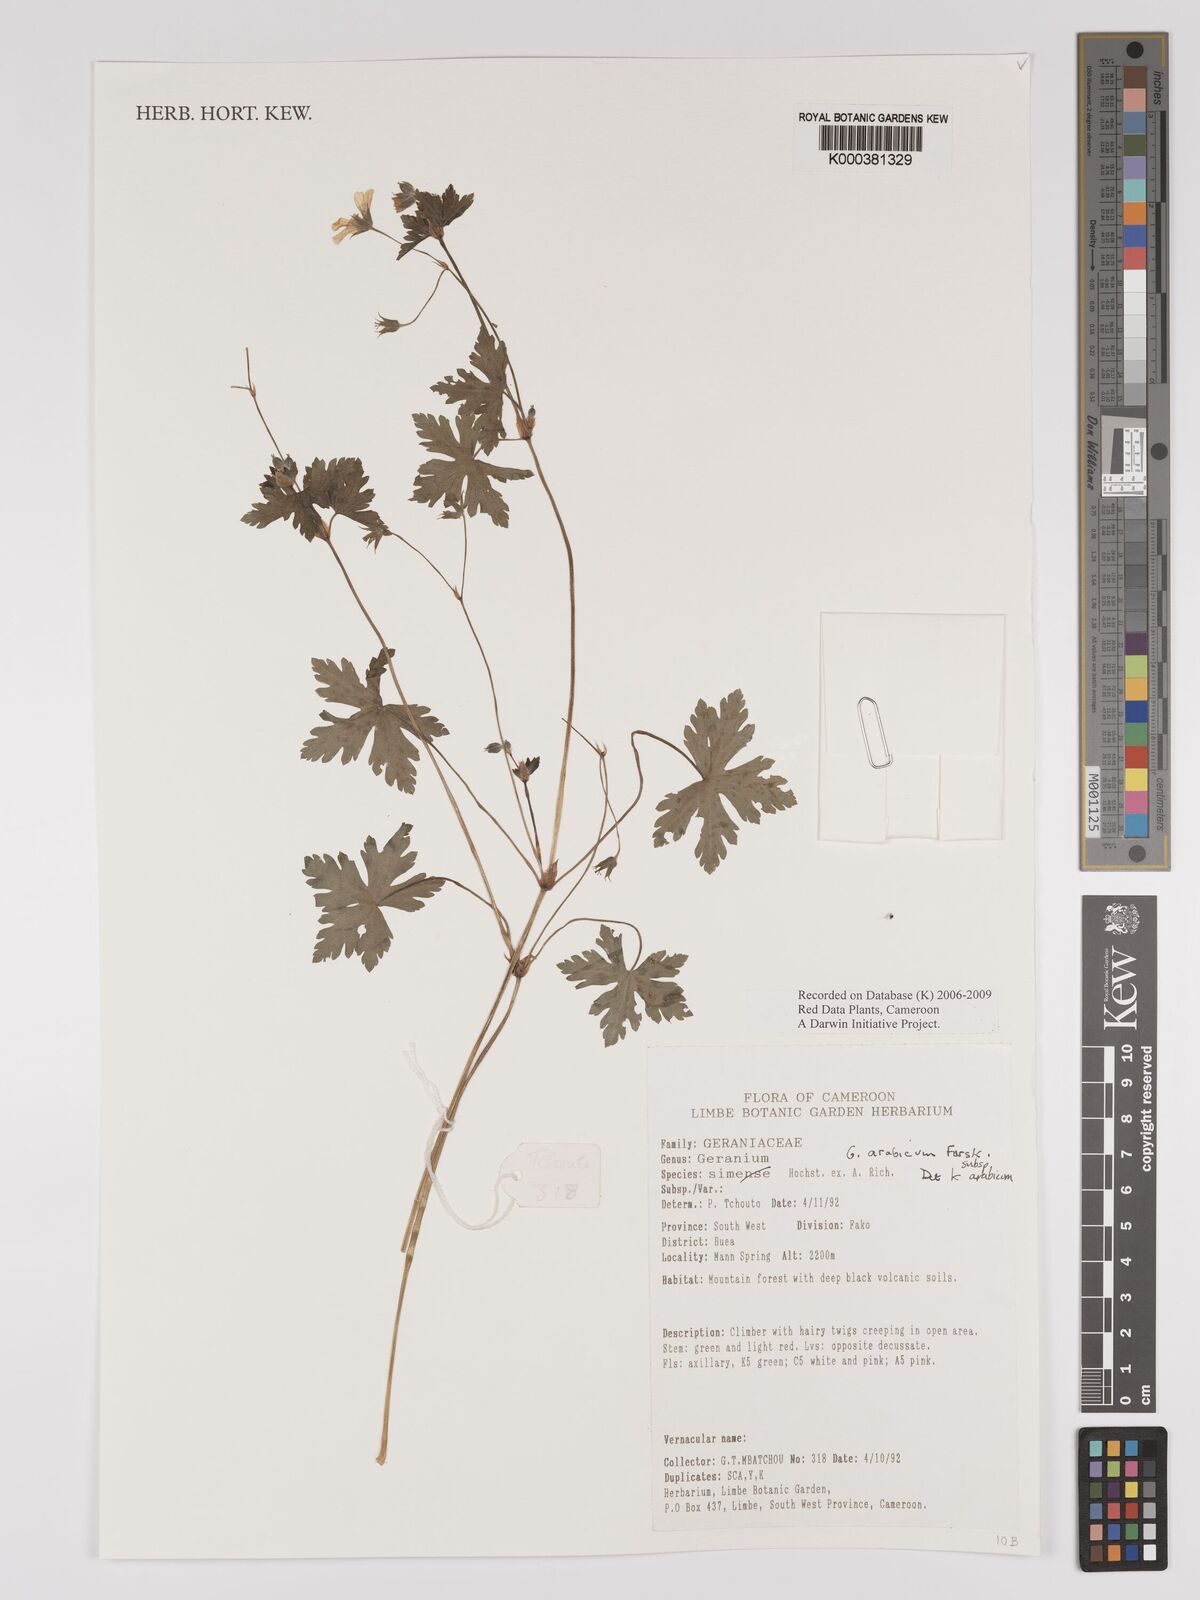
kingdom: Plantae
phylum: Tracheophyta
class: Magnoliopsida
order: Geraniales
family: Geraniaceae
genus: Geranium
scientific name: Geranium arabicum
